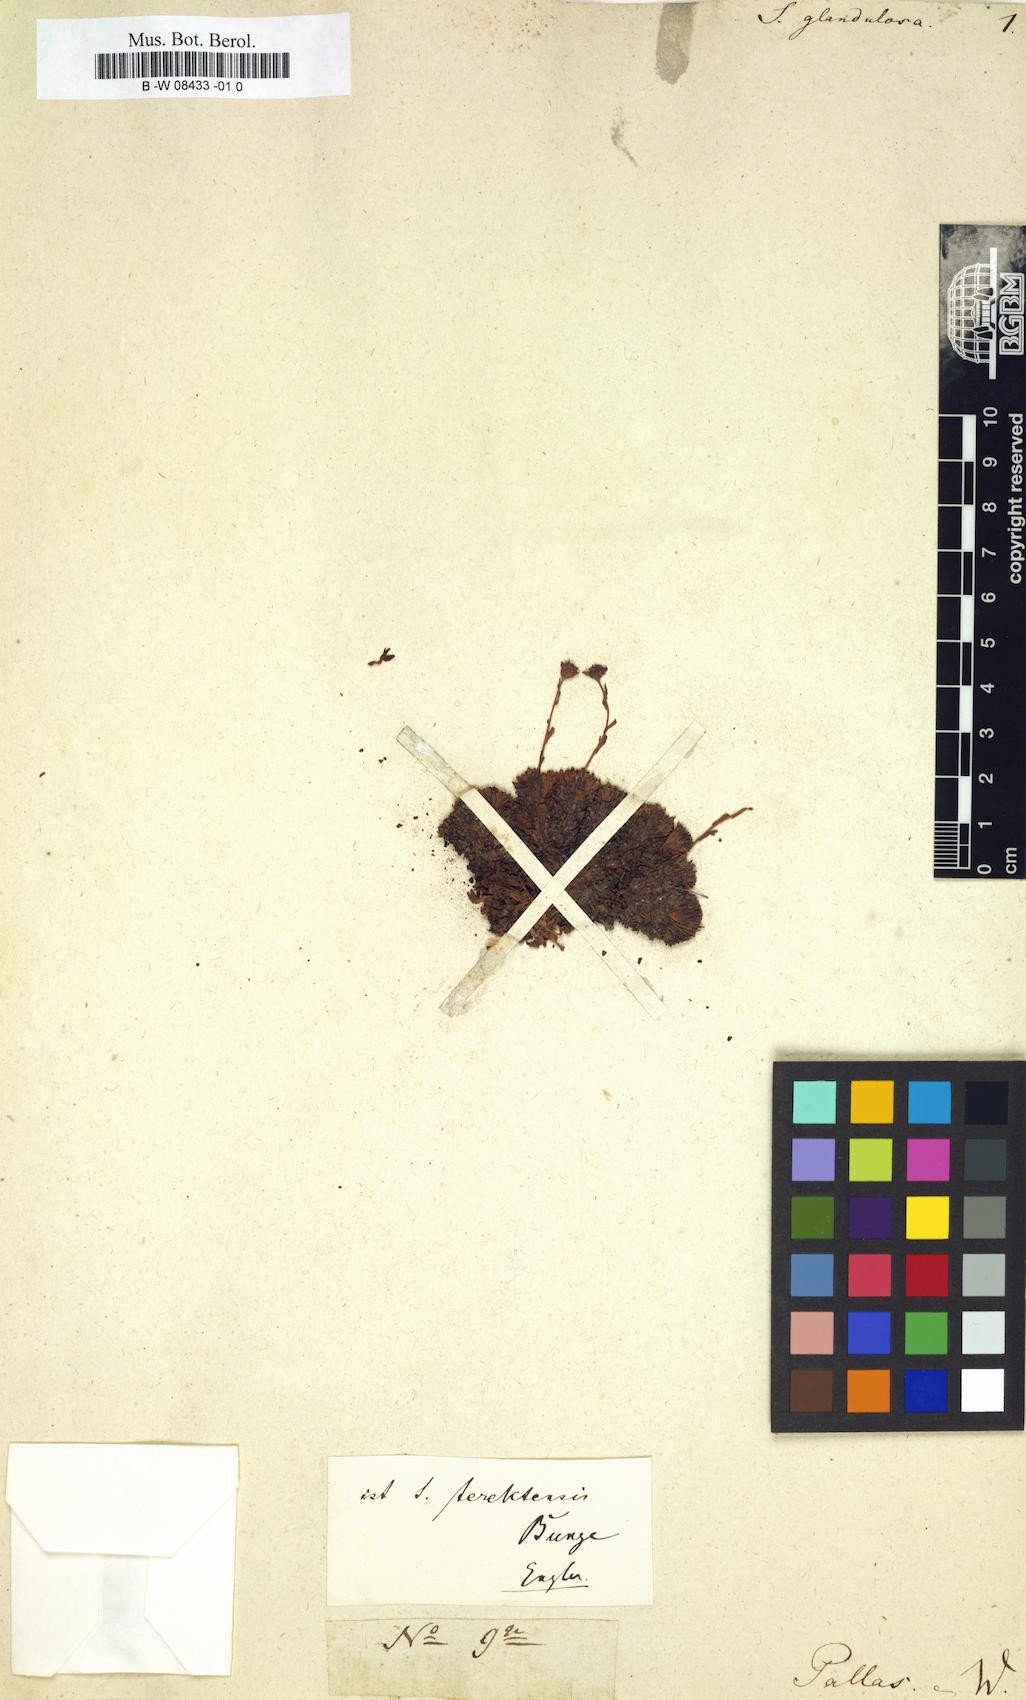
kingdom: Plantae
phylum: Tracheophyta
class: Magnoliopsida
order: Saxifragales
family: Saxifragaceae
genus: Saxifraga
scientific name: Saxifraga
